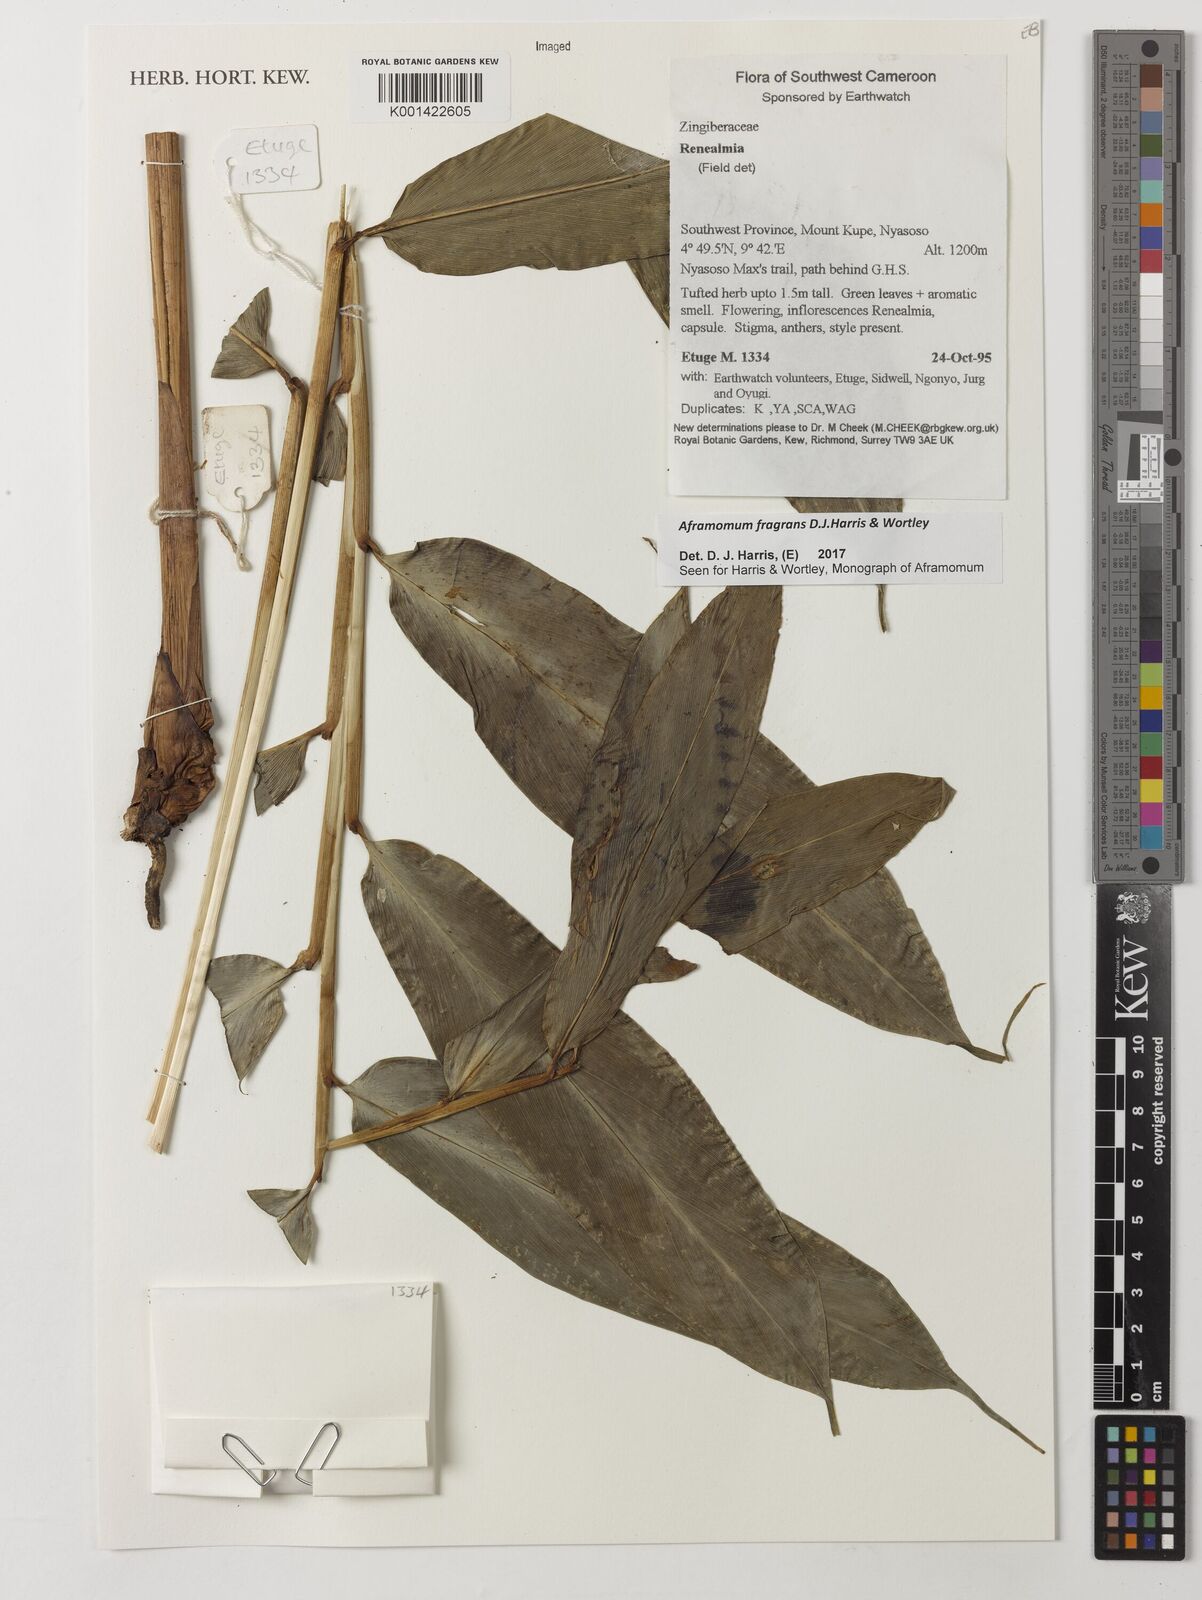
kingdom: Plantae
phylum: Tracheophyta
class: Liliopsida
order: Zingiberales
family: Zingiberaceae
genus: Aframomum
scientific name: Aframomum fragrans
